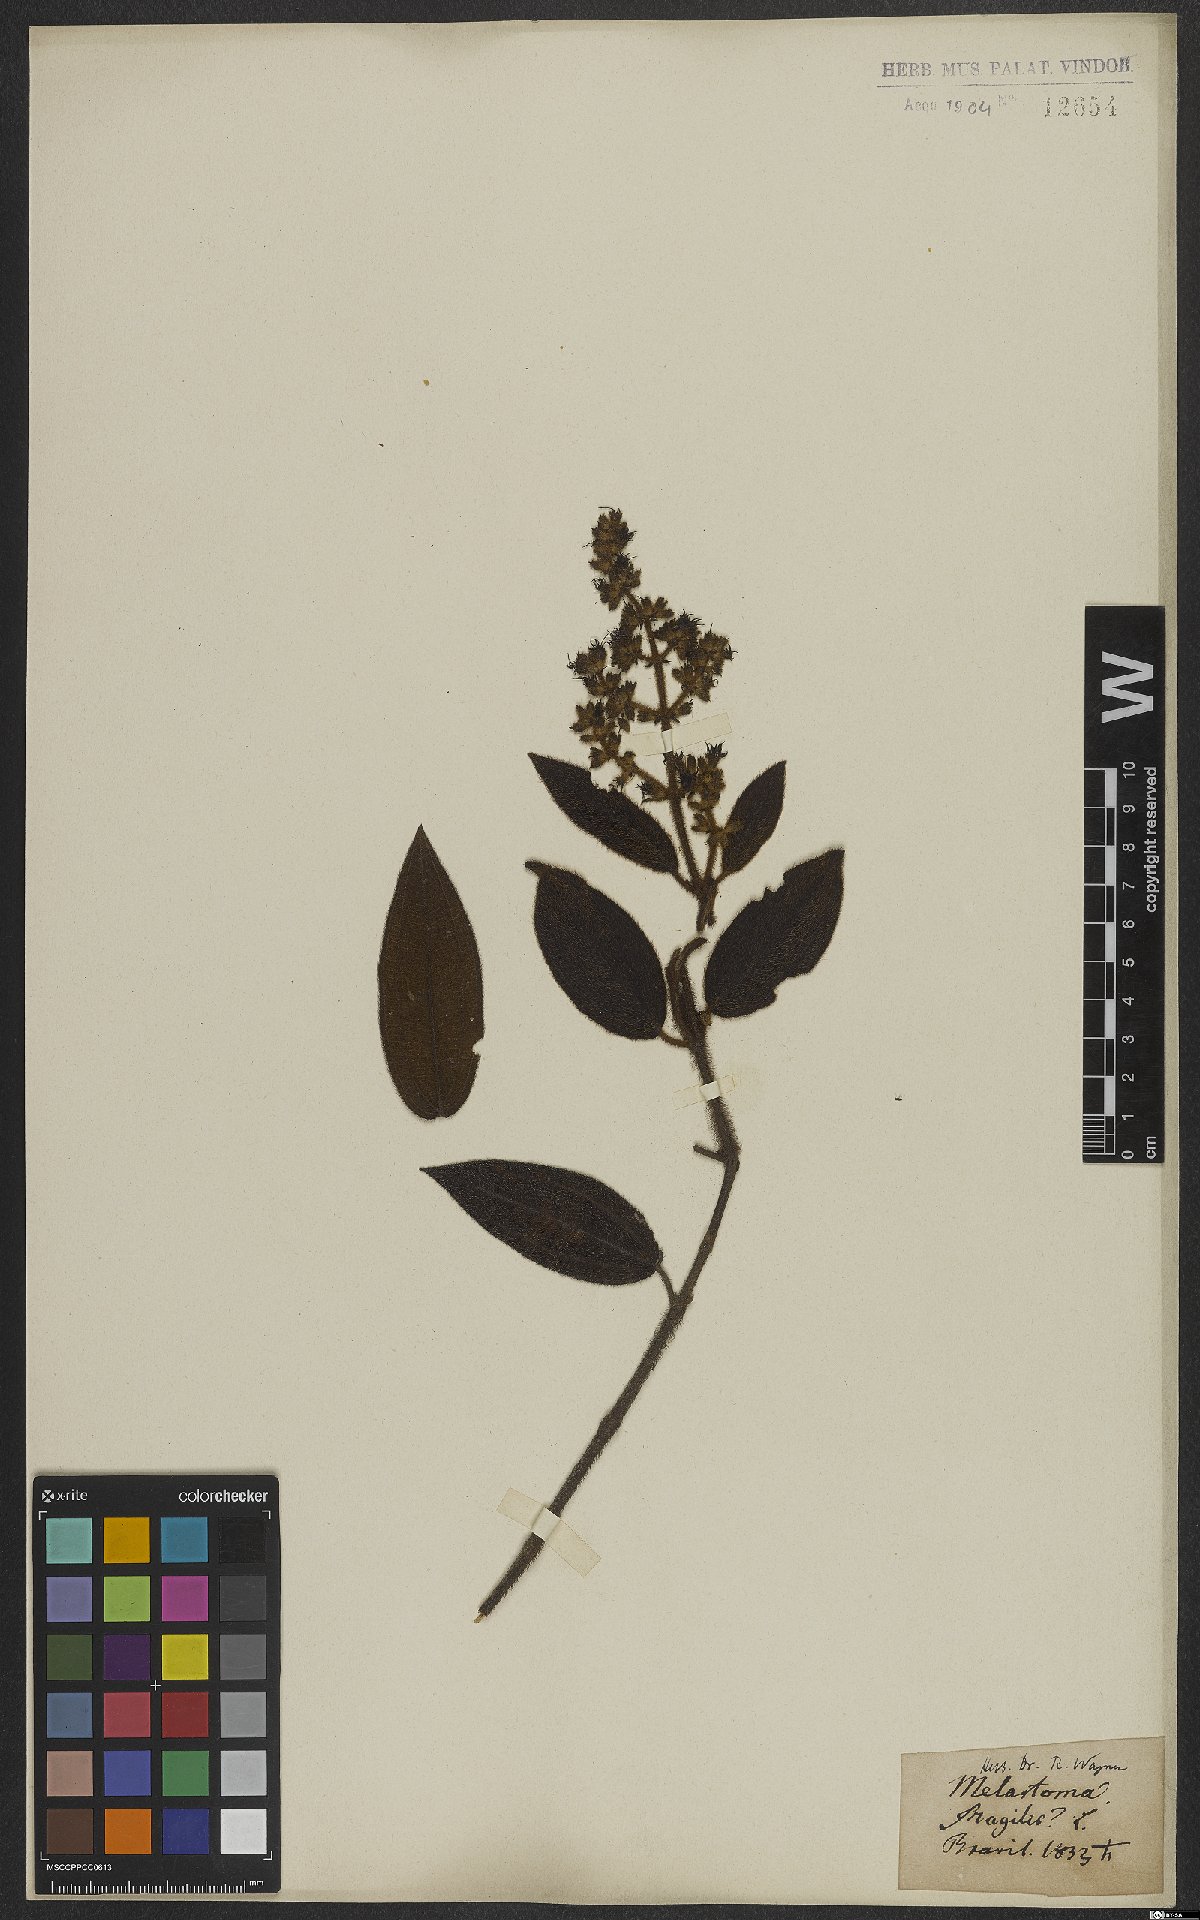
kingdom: Plantae
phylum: Tracheophyta
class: Magnoliopsida
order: Myrtales
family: Melastomataceae
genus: Miconia
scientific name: Miconia
